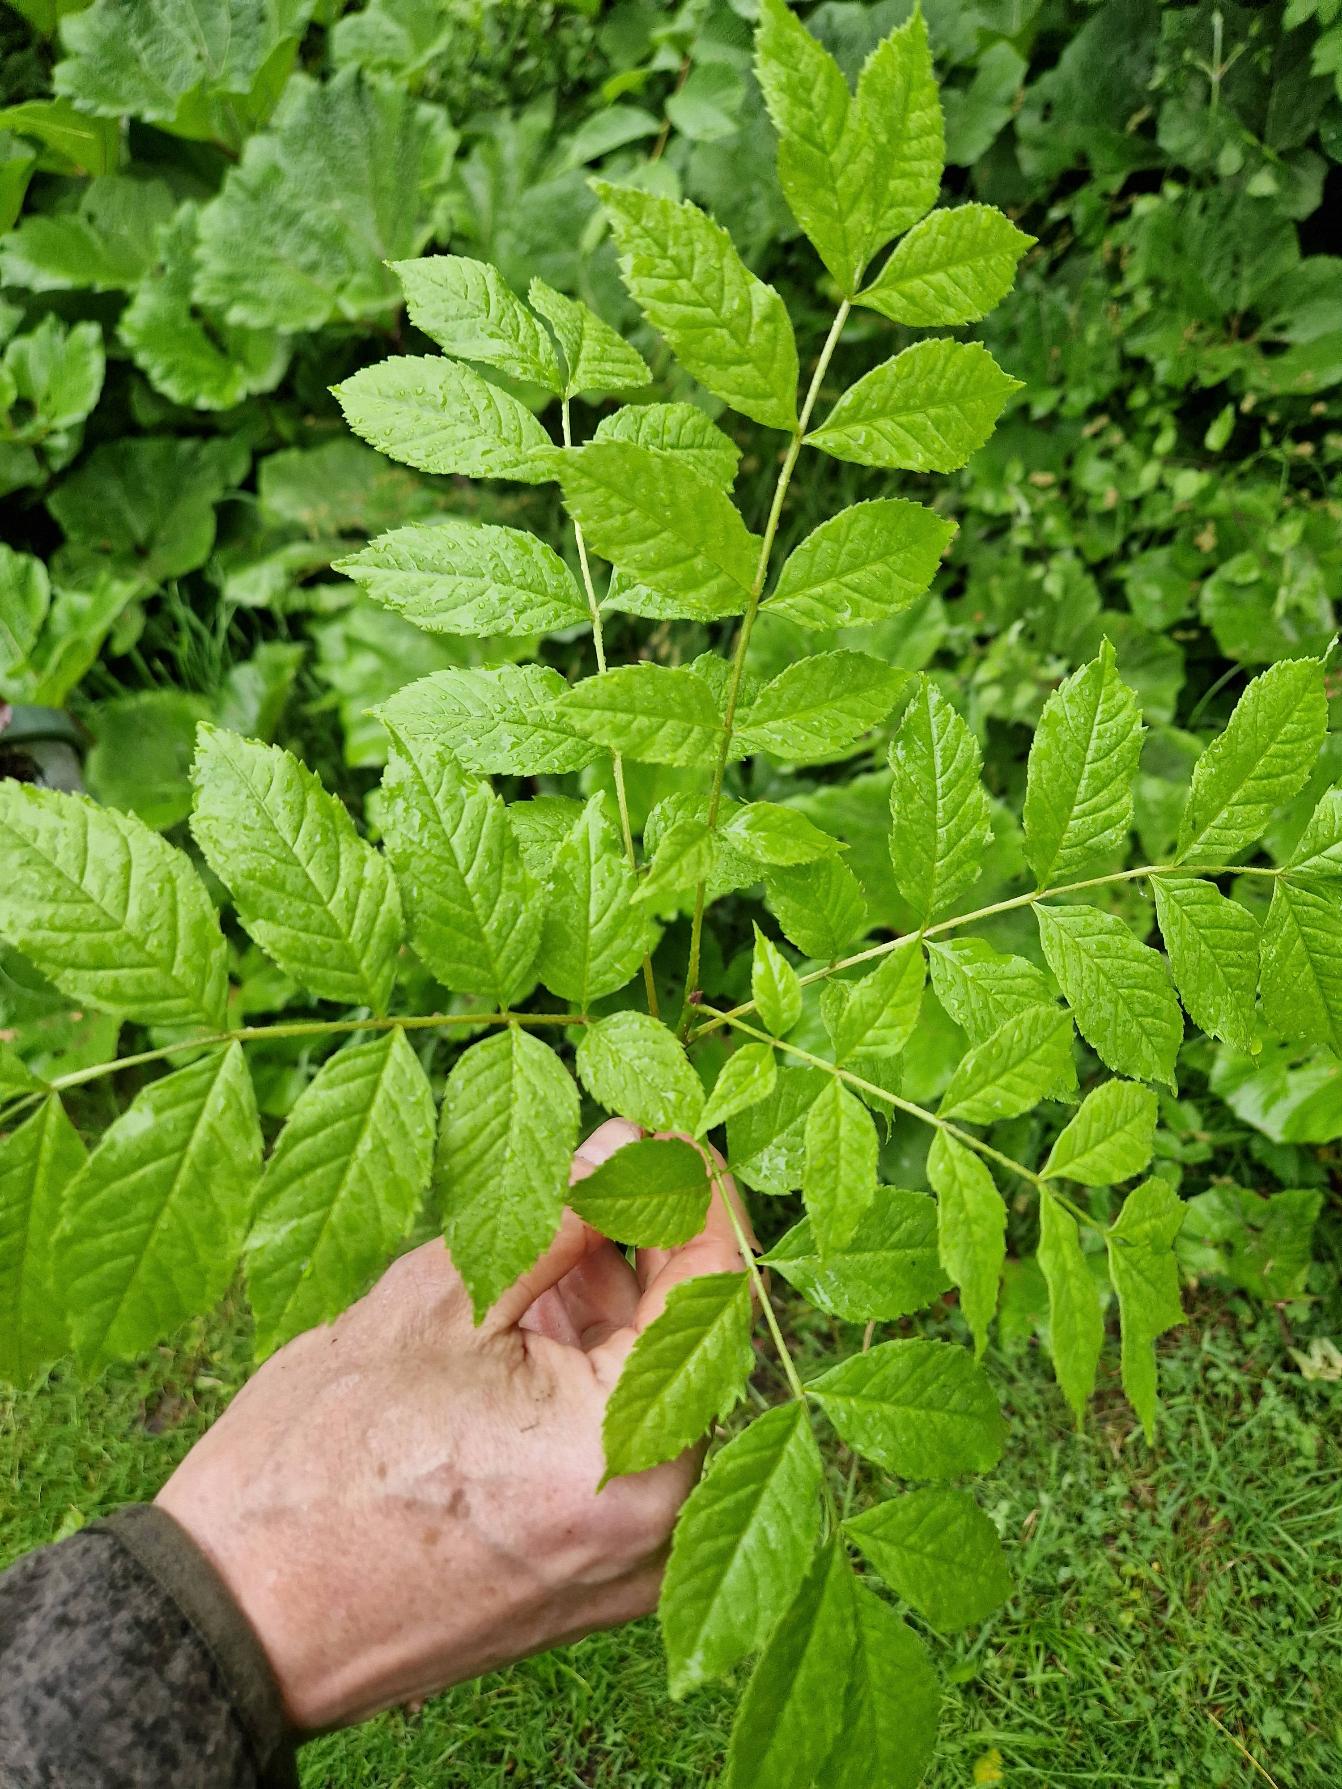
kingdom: Plantae
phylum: Tracheophyta
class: Magnoliopsida
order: Lamiales
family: Oleaceae
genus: Fraxinus
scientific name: Fraxinus excelsior
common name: Ask
